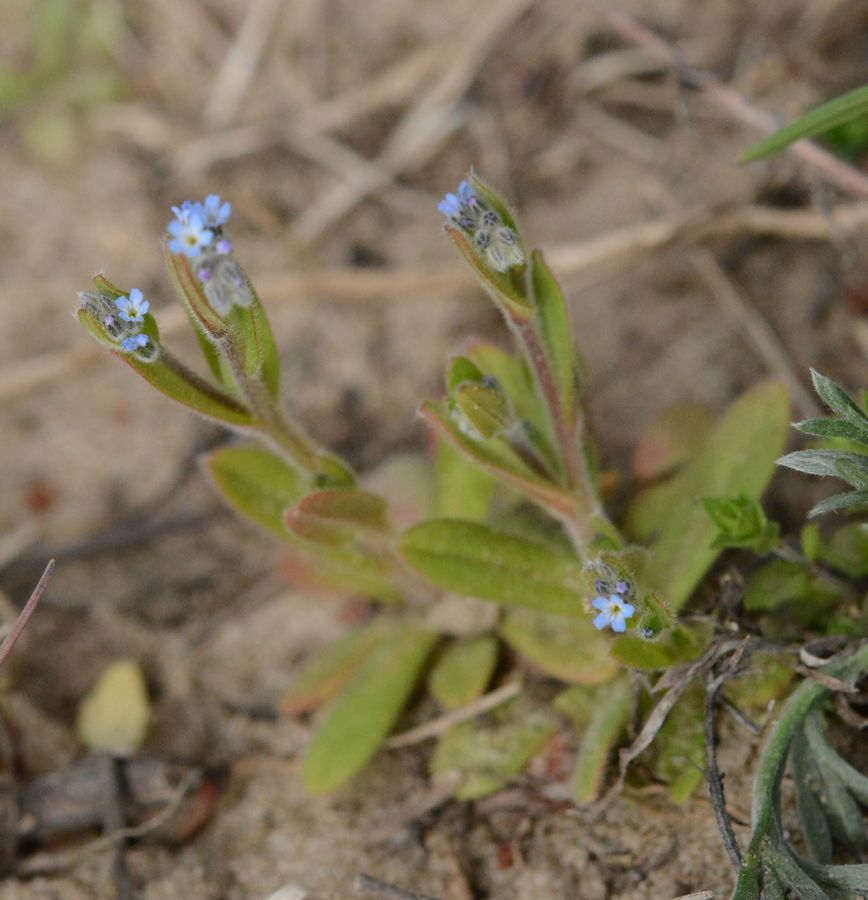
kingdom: Plantae
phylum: Tracheophyta
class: Magnoliopsida
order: Boraginales
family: Boraginaceae
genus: Myosotis
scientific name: Myosotis stricta
